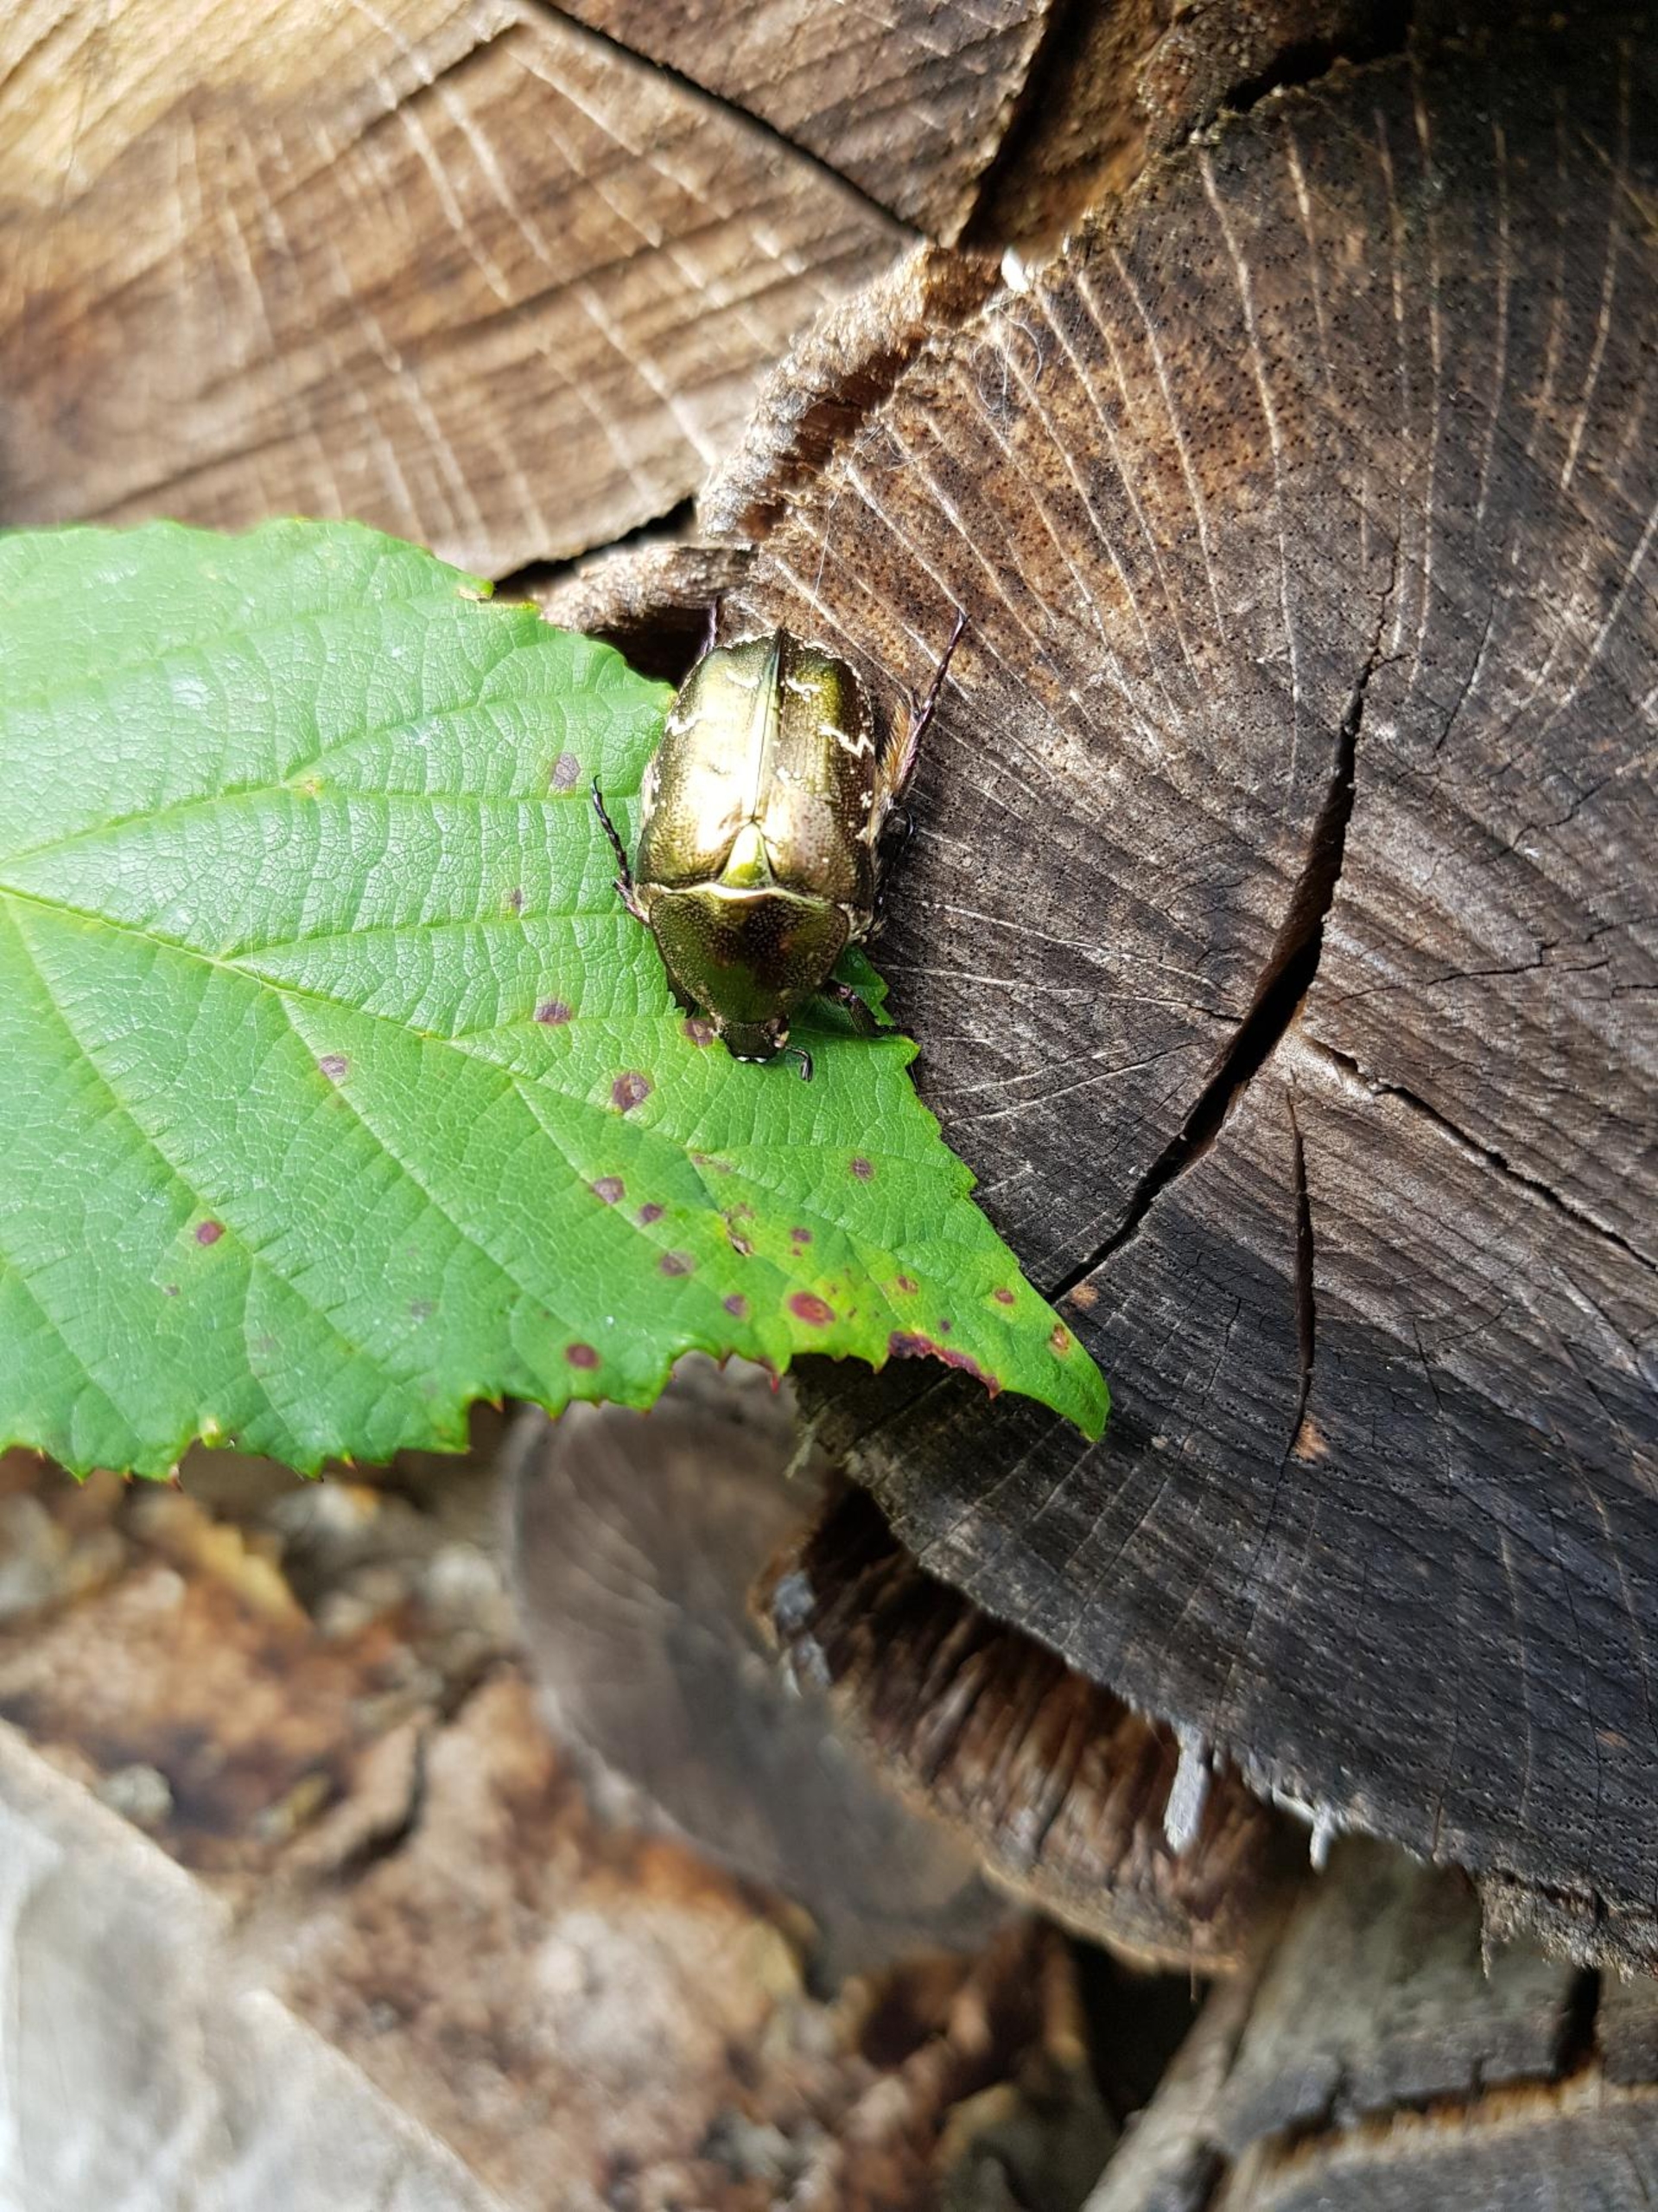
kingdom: Animalia
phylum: Arthropoda
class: Insecta
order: Coleoptera
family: Scarabaeidae
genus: Protaetia
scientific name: Protaetia cuprea
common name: Kobberguldbasse
